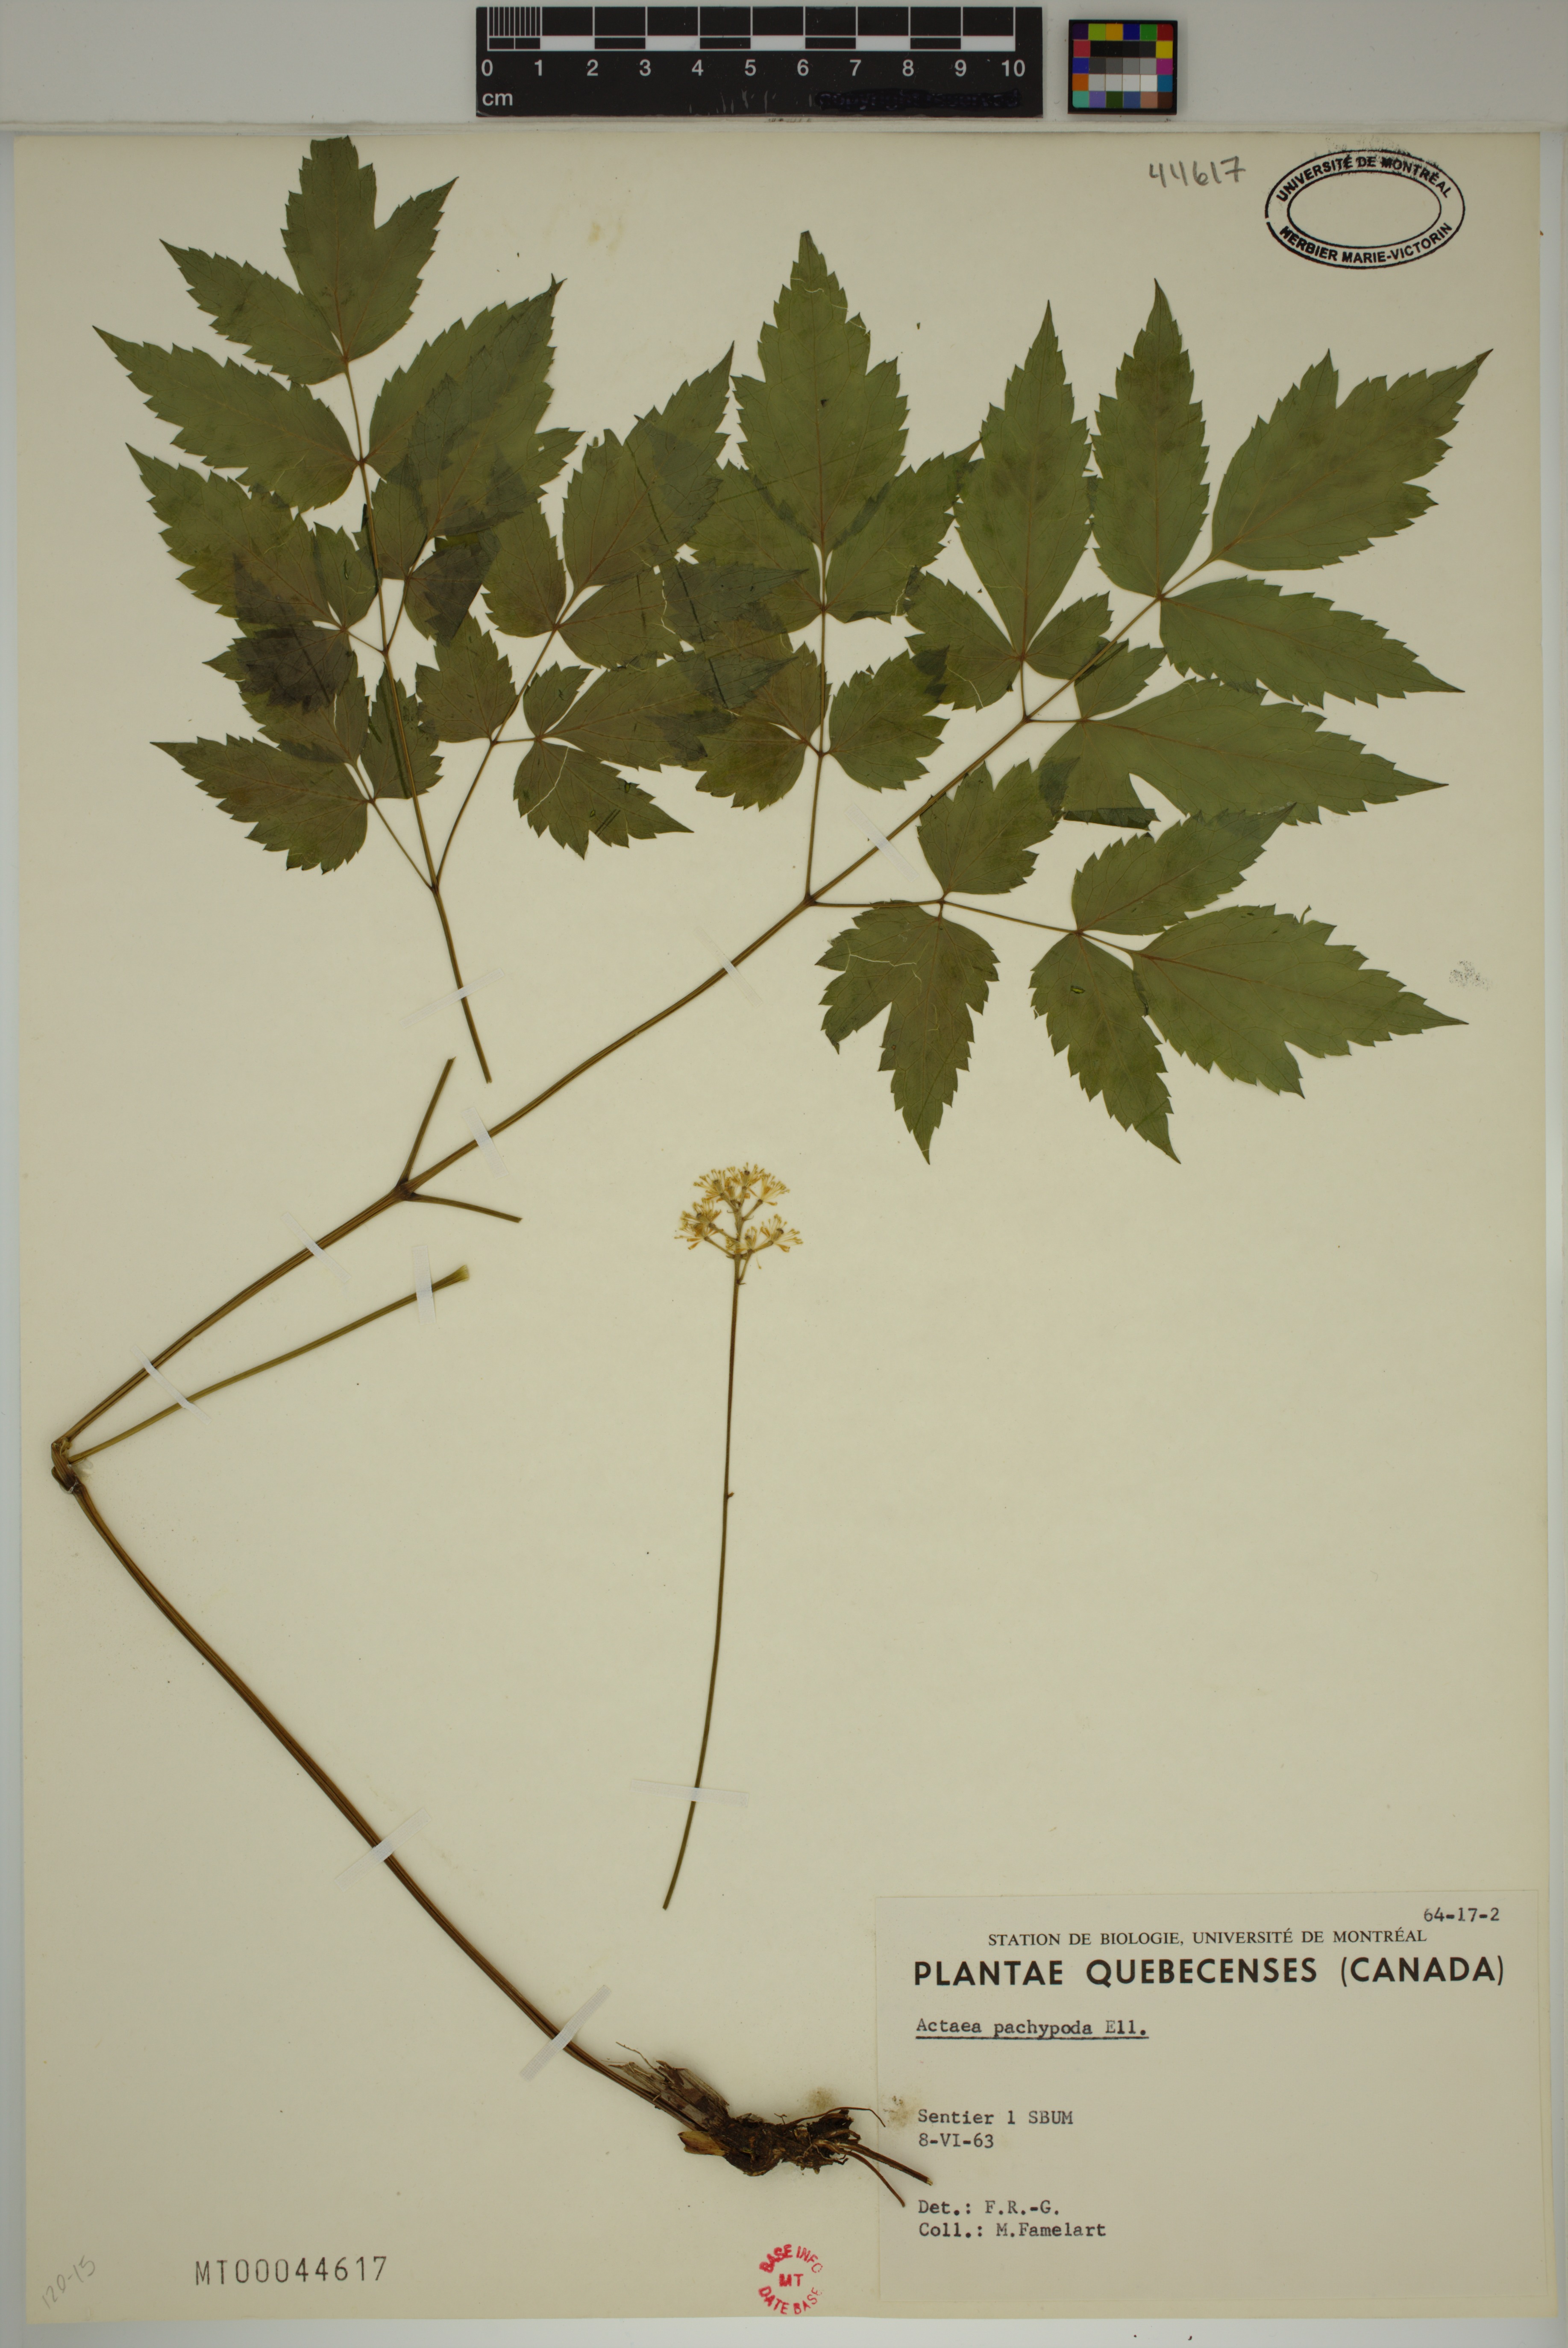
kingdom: Plantae
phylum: Tracheophyta
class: Magnoliopsida
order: Ranunculales
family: Ranunculaceae
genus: Actaea
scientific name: Actaea pachypoda
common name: Doll's-eyes
